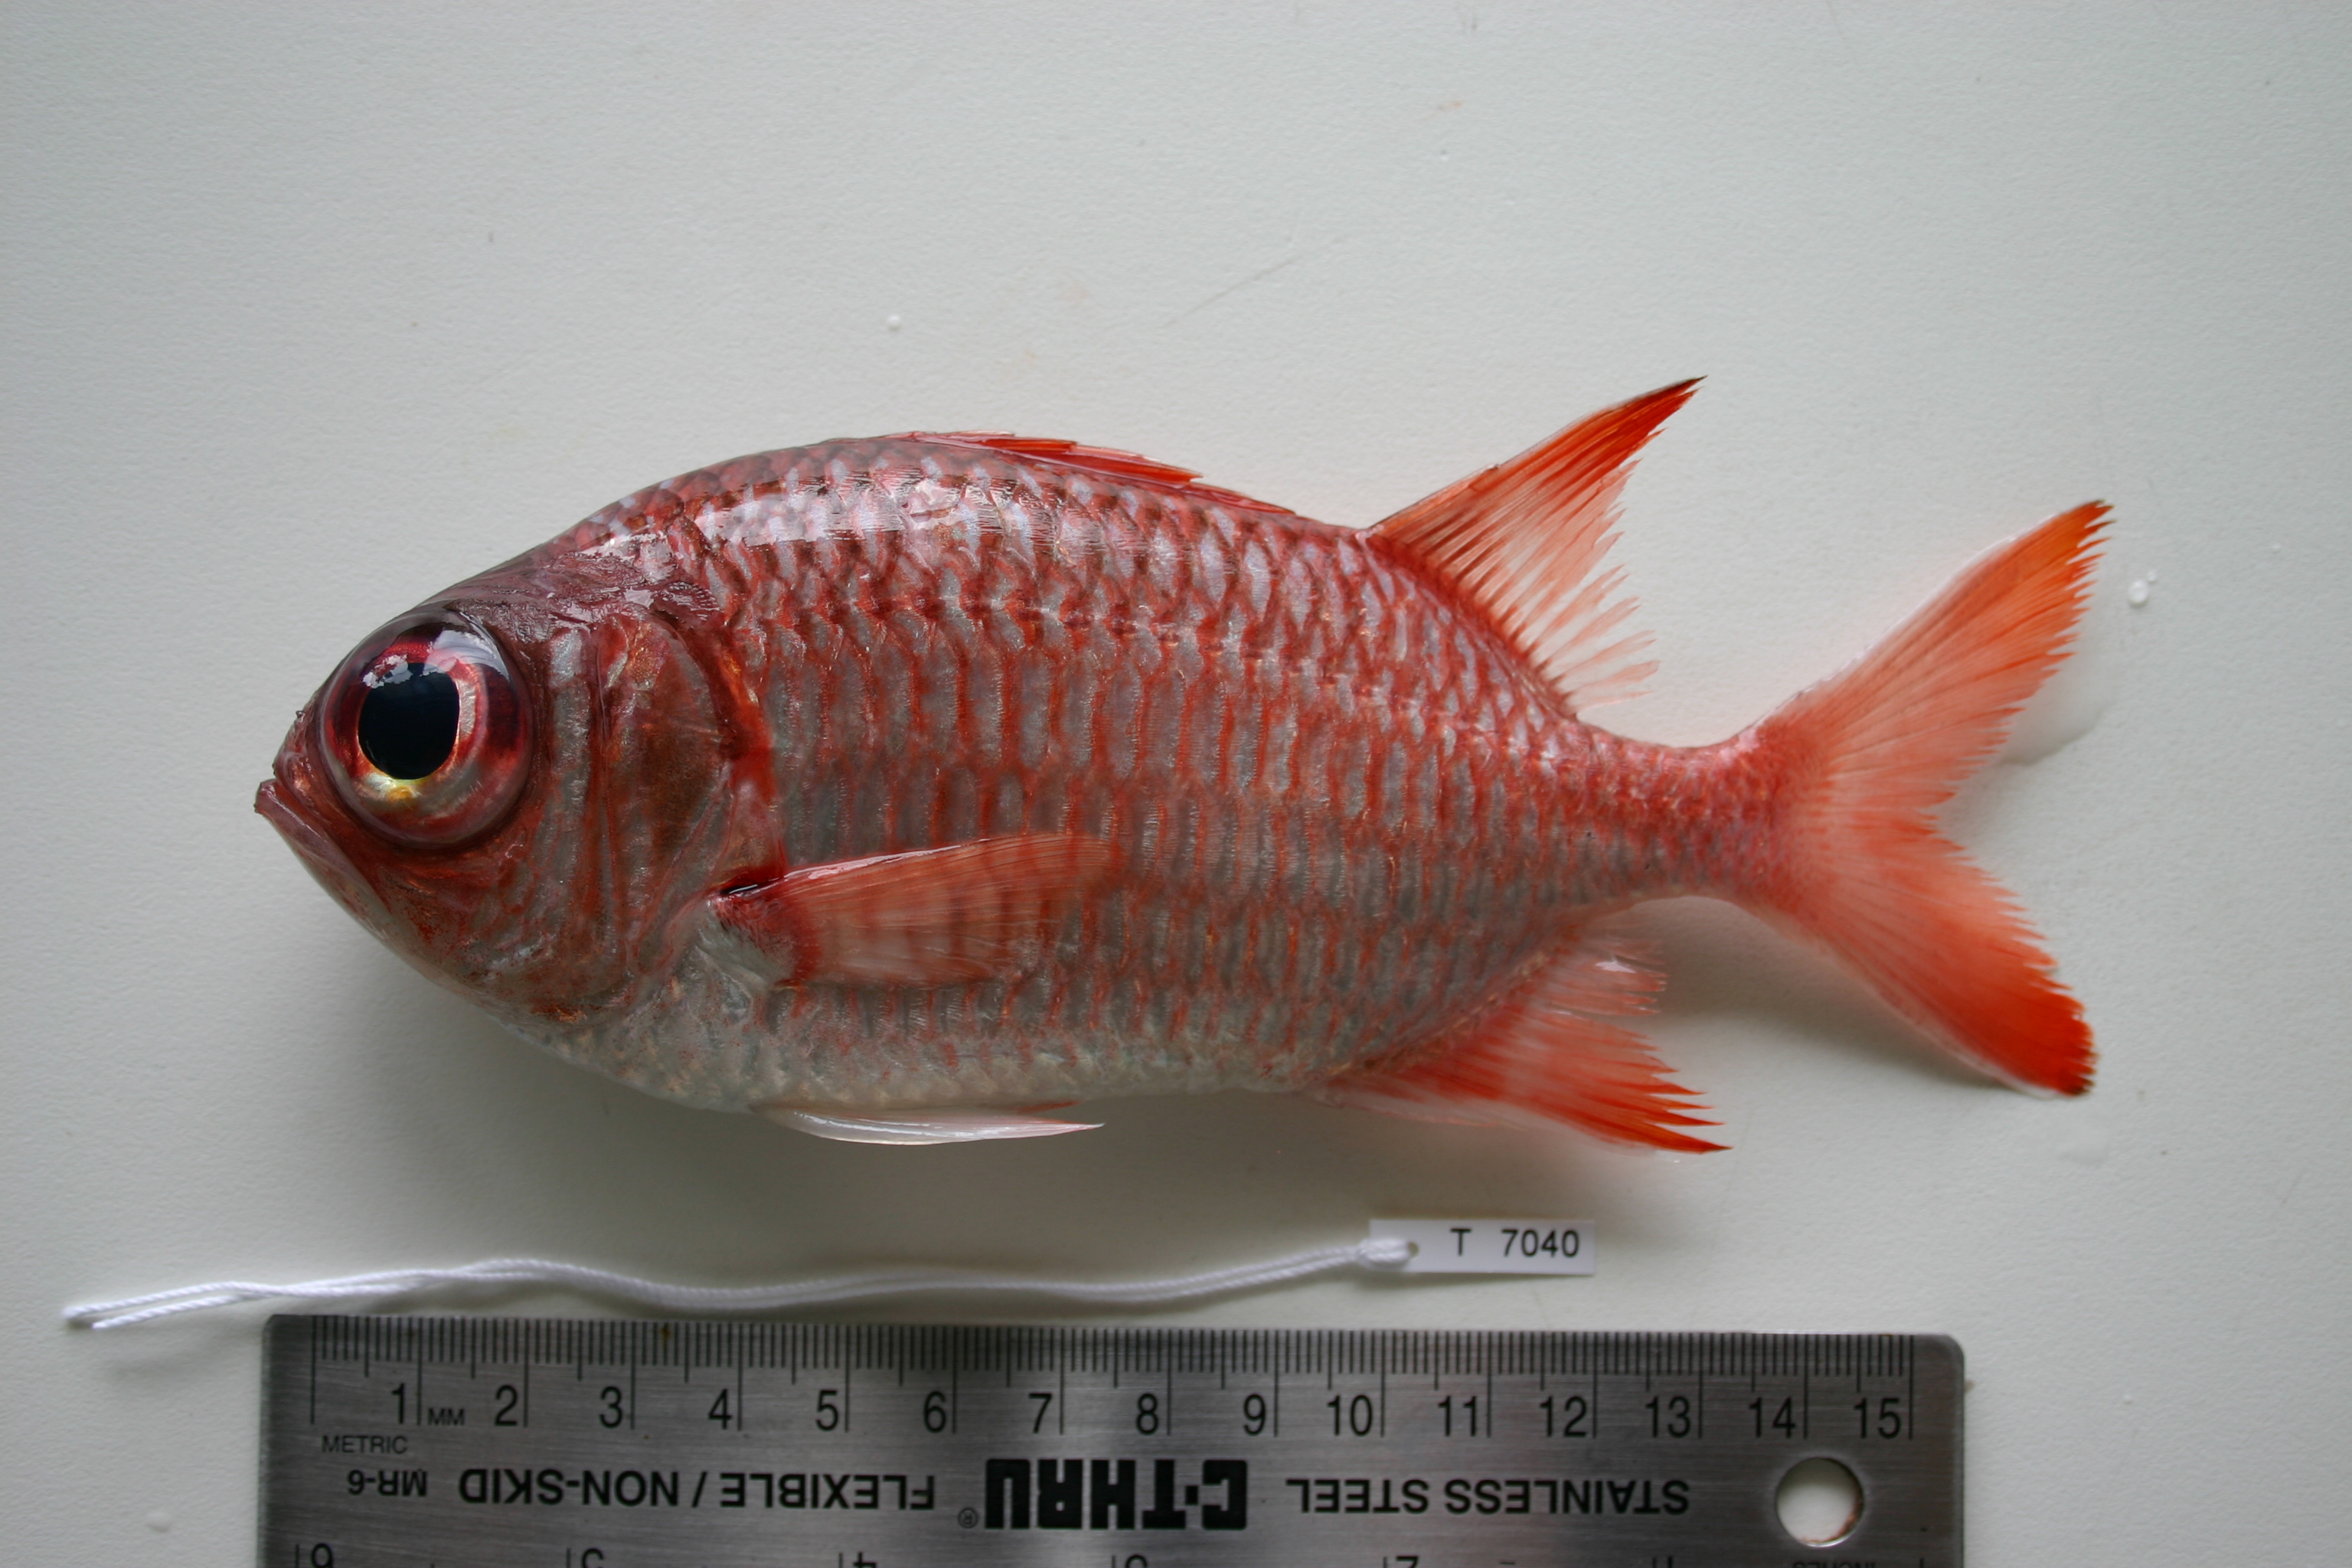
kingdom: Animalia
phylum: Chordata
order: Beryciformes
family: Holocentridae
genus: Myripristis
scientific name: Myripristis violacea
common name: Lattice soldierfish
